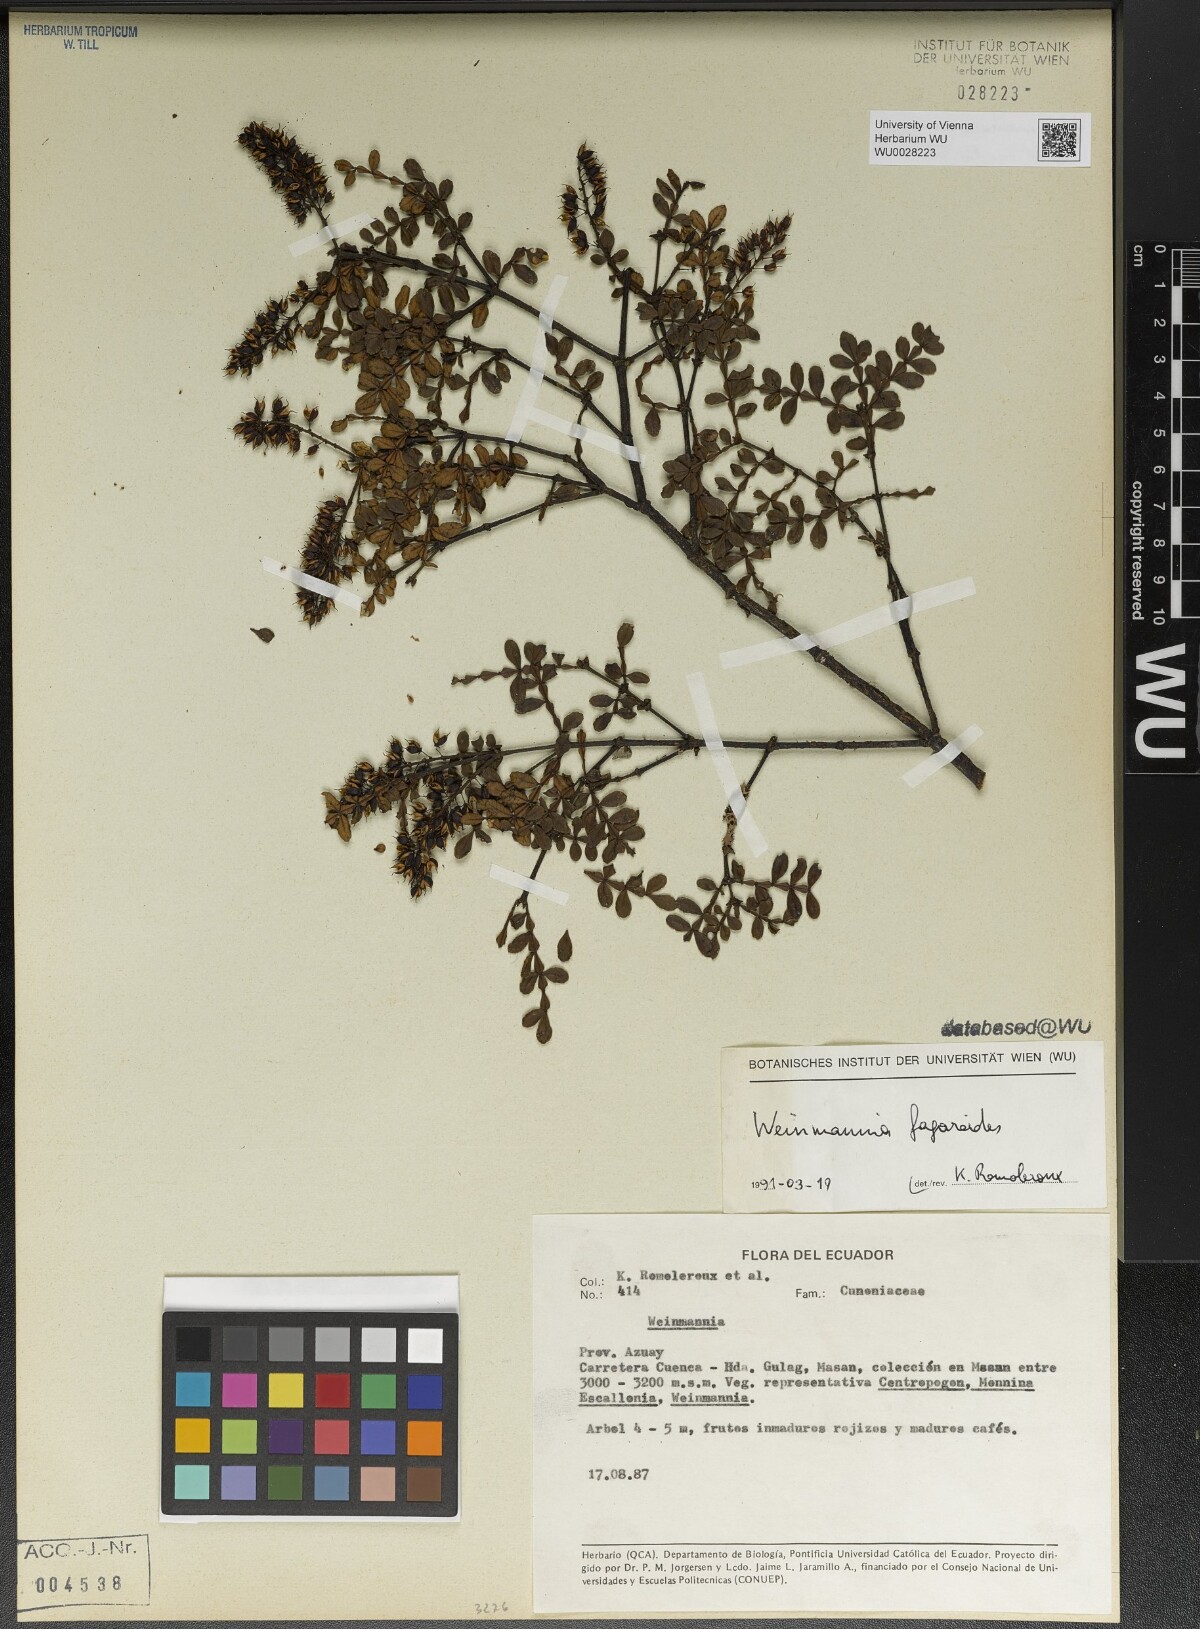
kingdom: Plantae
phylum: Tracheophyta
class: Magnoliopsida
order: Oxalidales
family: Cunoniaceae
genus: Weinmannia
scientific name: Weinmannia fagaroides
